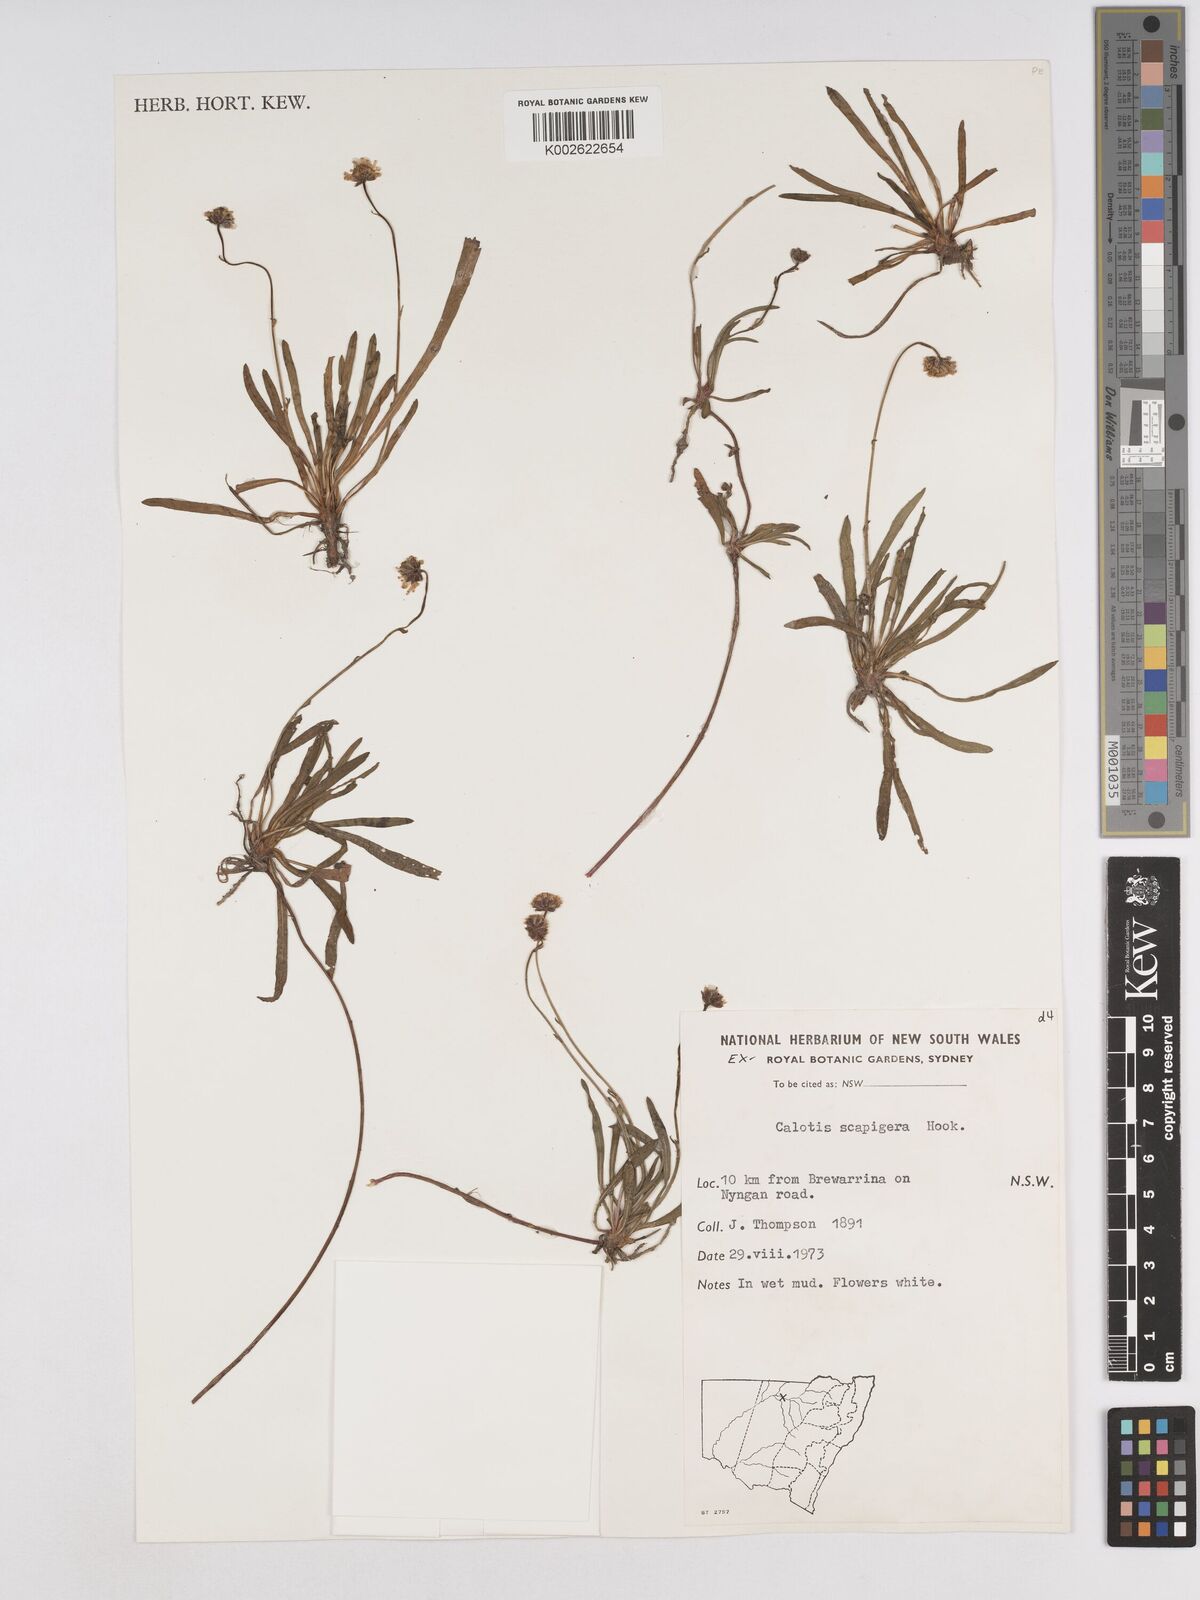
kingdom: Plantae
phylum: Tracheophyta
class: Magnoliopsida
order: Asterales
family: Asteraceae
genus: Calotis
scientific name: Calotis scapigera
